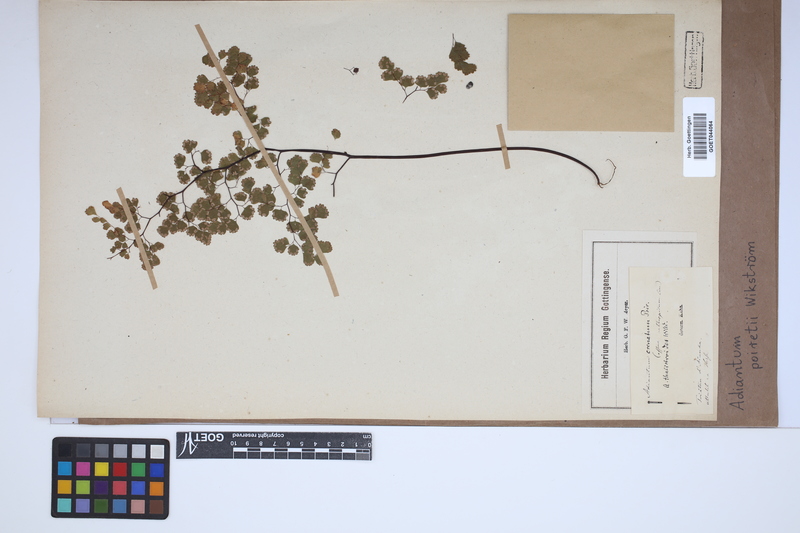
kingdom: Plantae
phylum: Tracheophyta
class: Polypodiopsida
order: Polypodiales
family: Pteridaceae
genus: Adiantum
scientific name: Adiantum poiretii
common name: Mexican maidenhair
